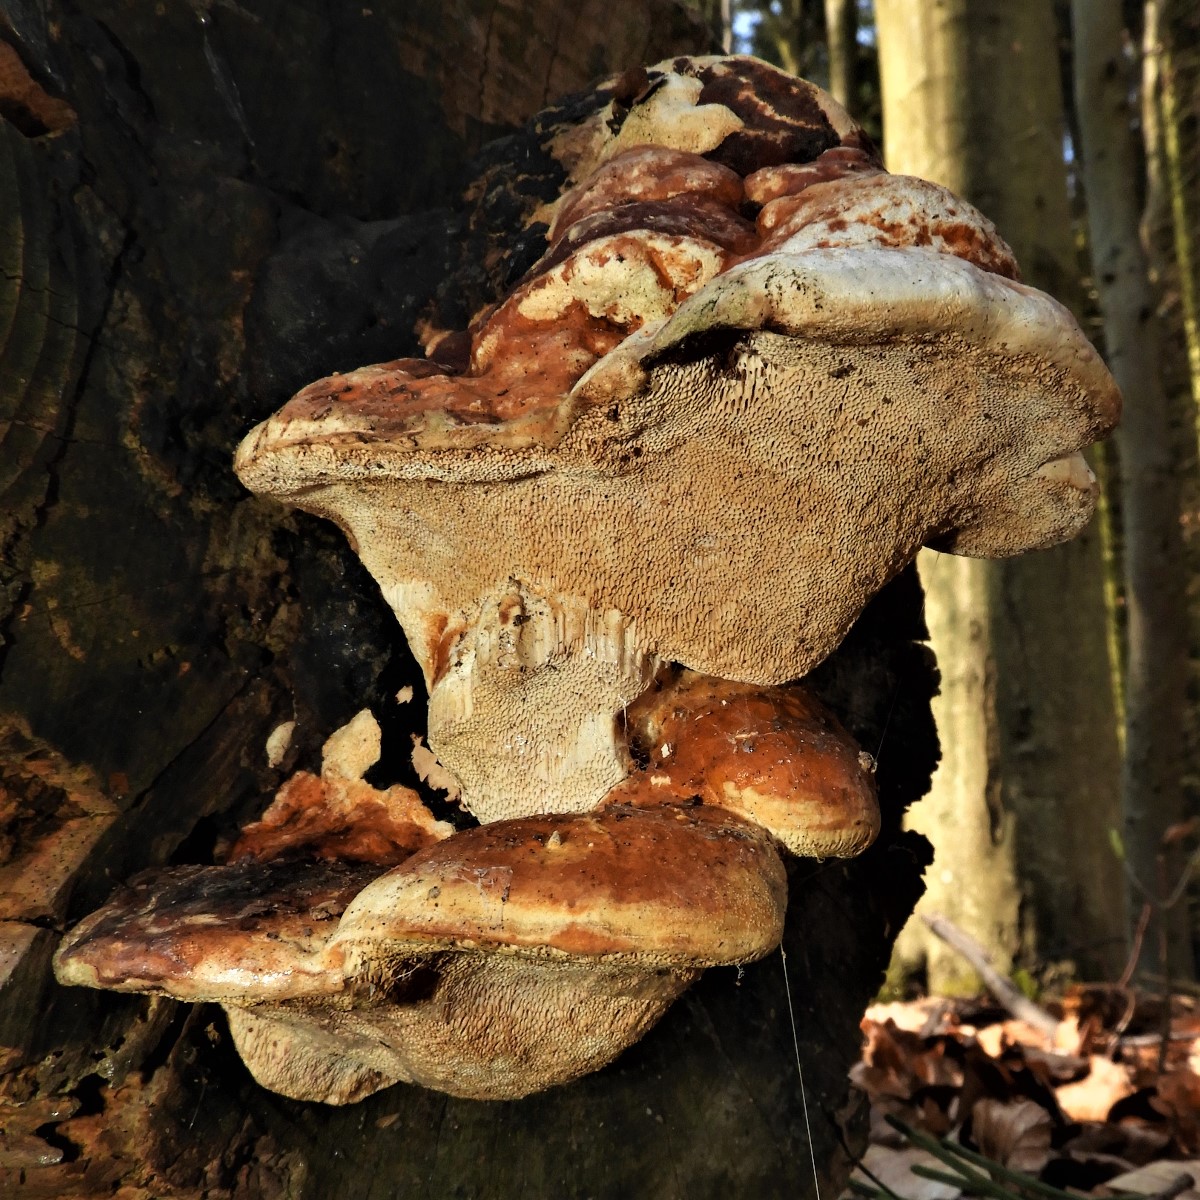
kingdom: Fungi
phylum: Basidiomycota
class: Agaricomycetes
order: Polyporales
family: Fomitopsidaceae
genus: Fomitopsis
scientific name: Fomitopsis pinicola
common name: randbæltet hovporesvamp
